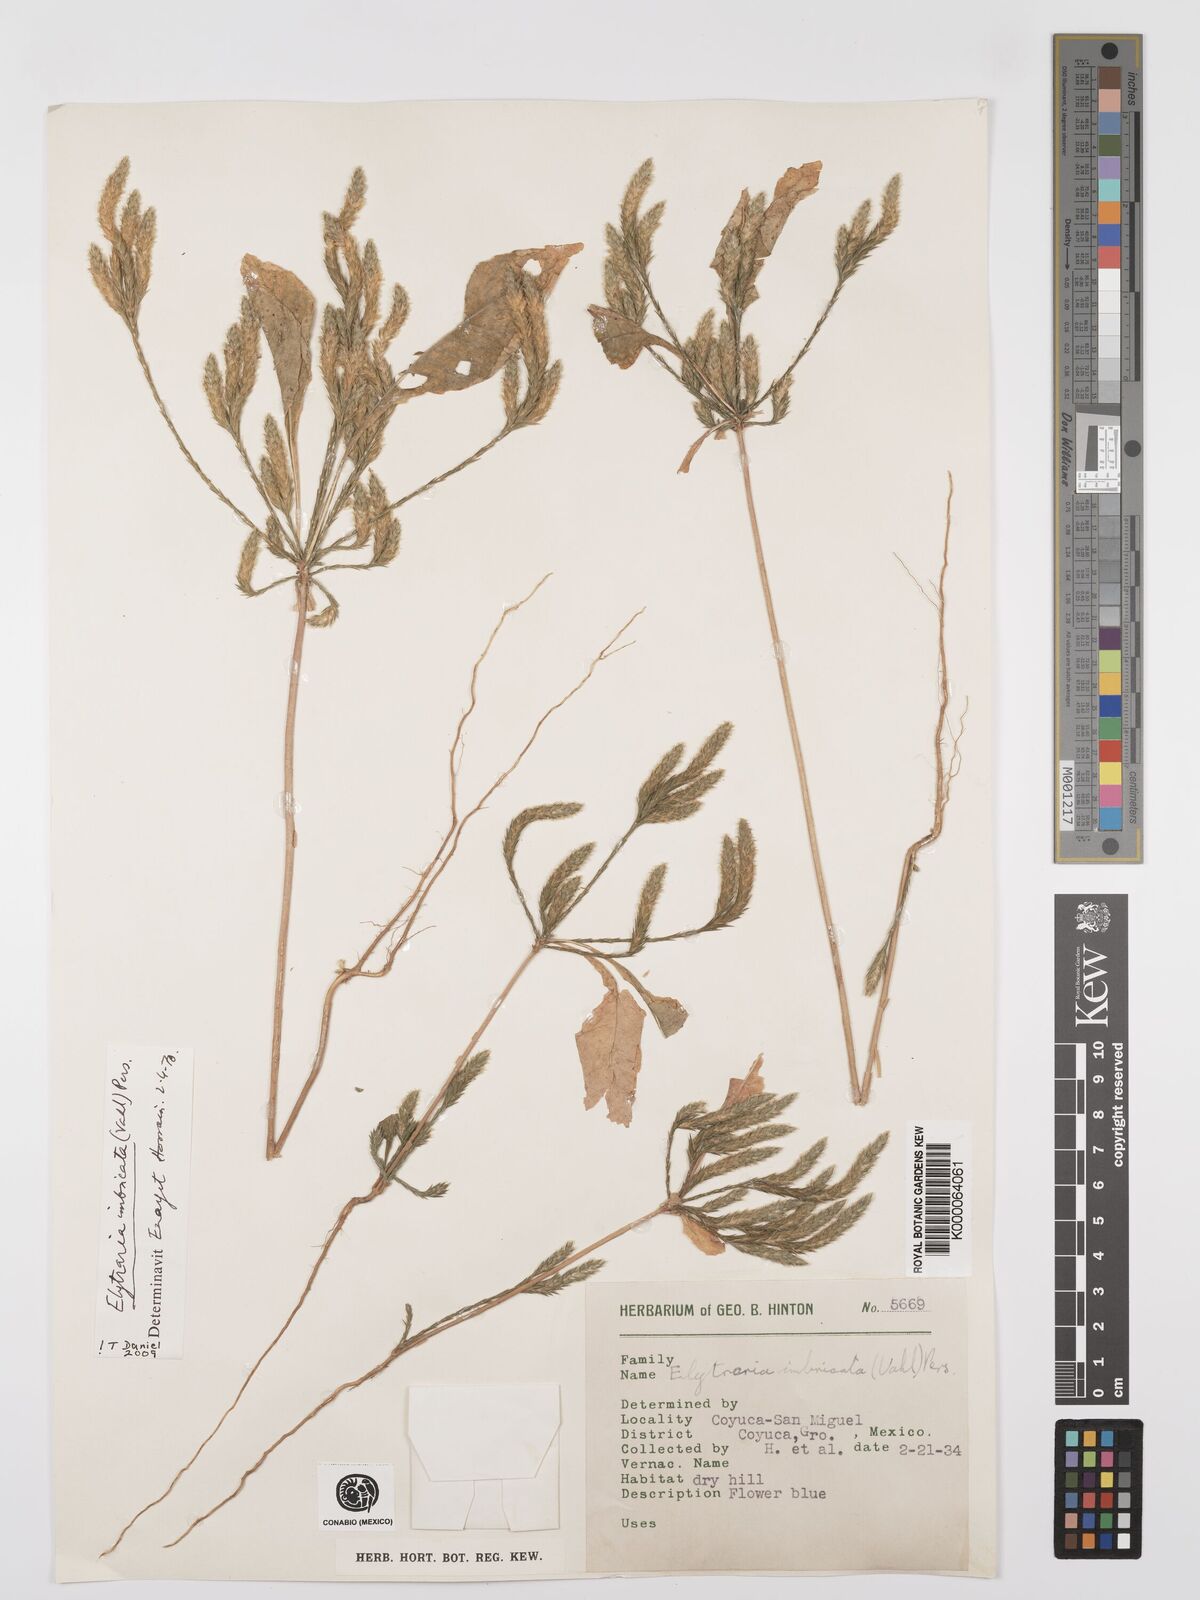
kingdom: Plantae
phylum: Tracheophyta
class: Magnoliopsida
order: Lamiales
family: Acanthaceae
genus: Elytraria
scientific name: Elytraria imbricata
